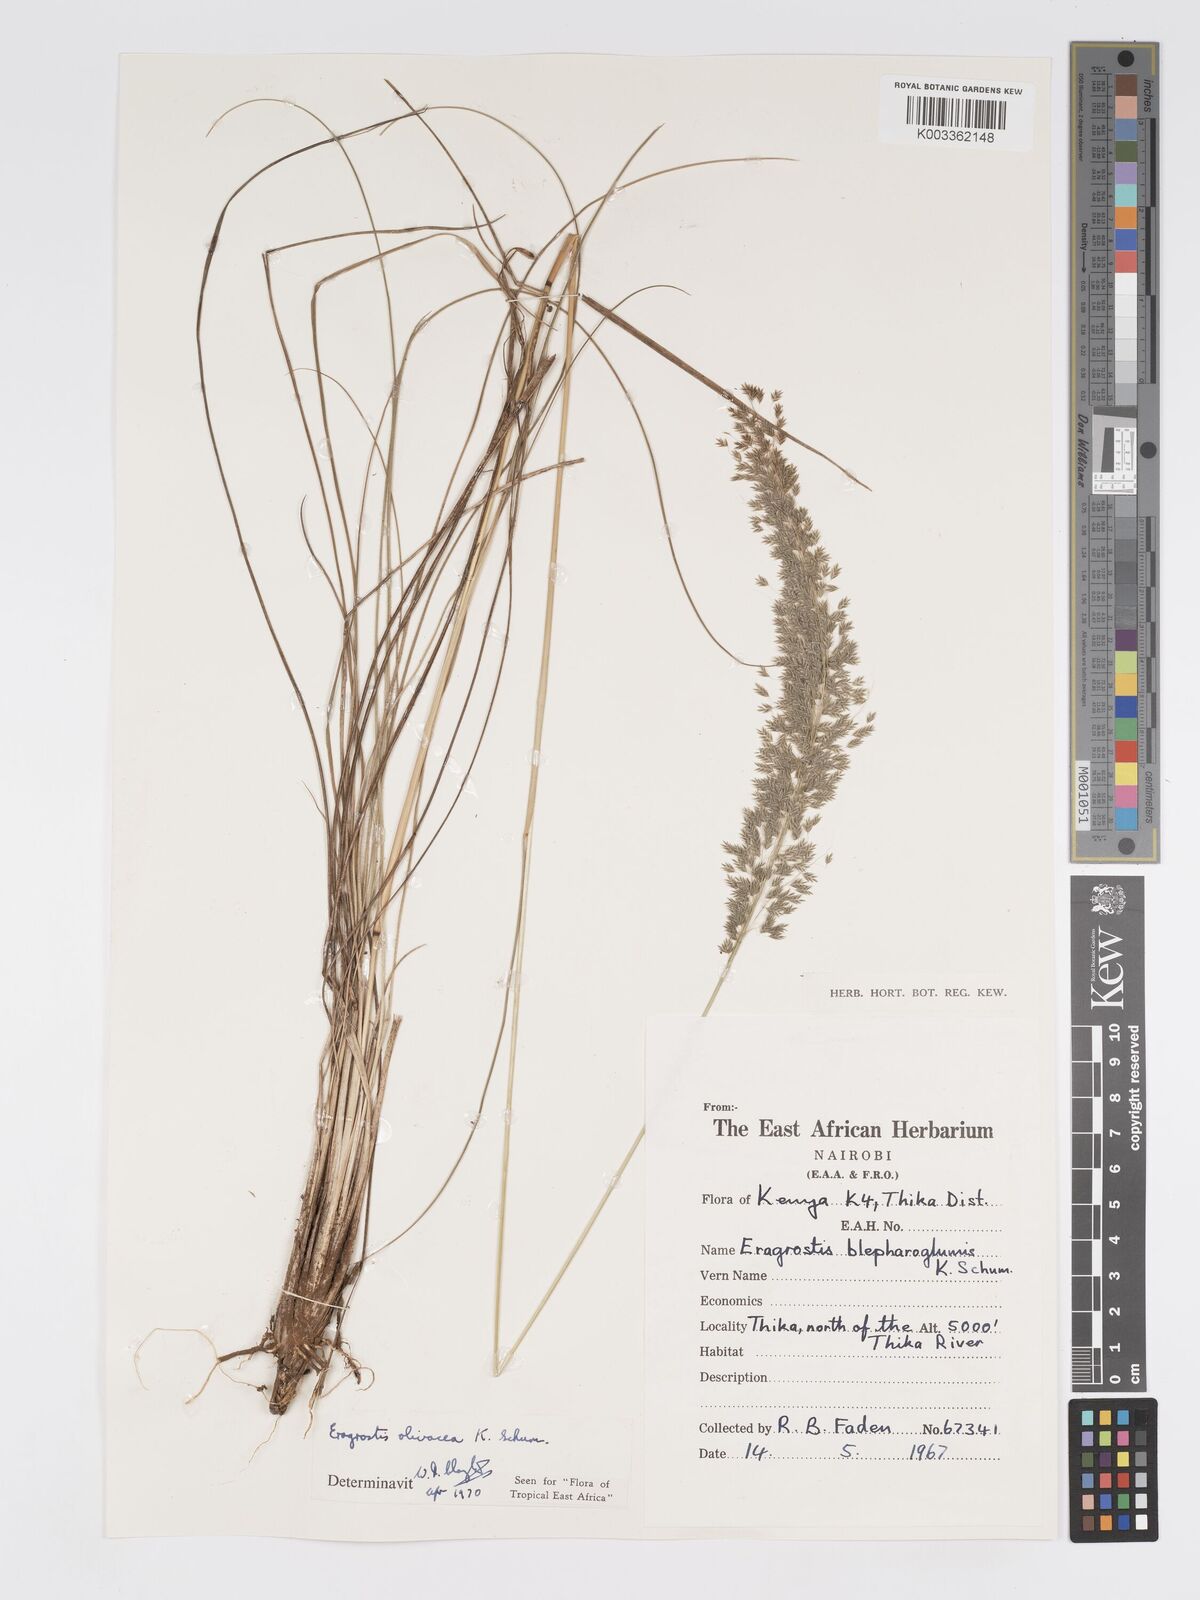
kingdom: Plantae
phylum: Tracheophyta
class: Liliopsida
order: Poales
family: Poaceae
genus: Eragrostis
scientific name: Eragrostis olivacea
